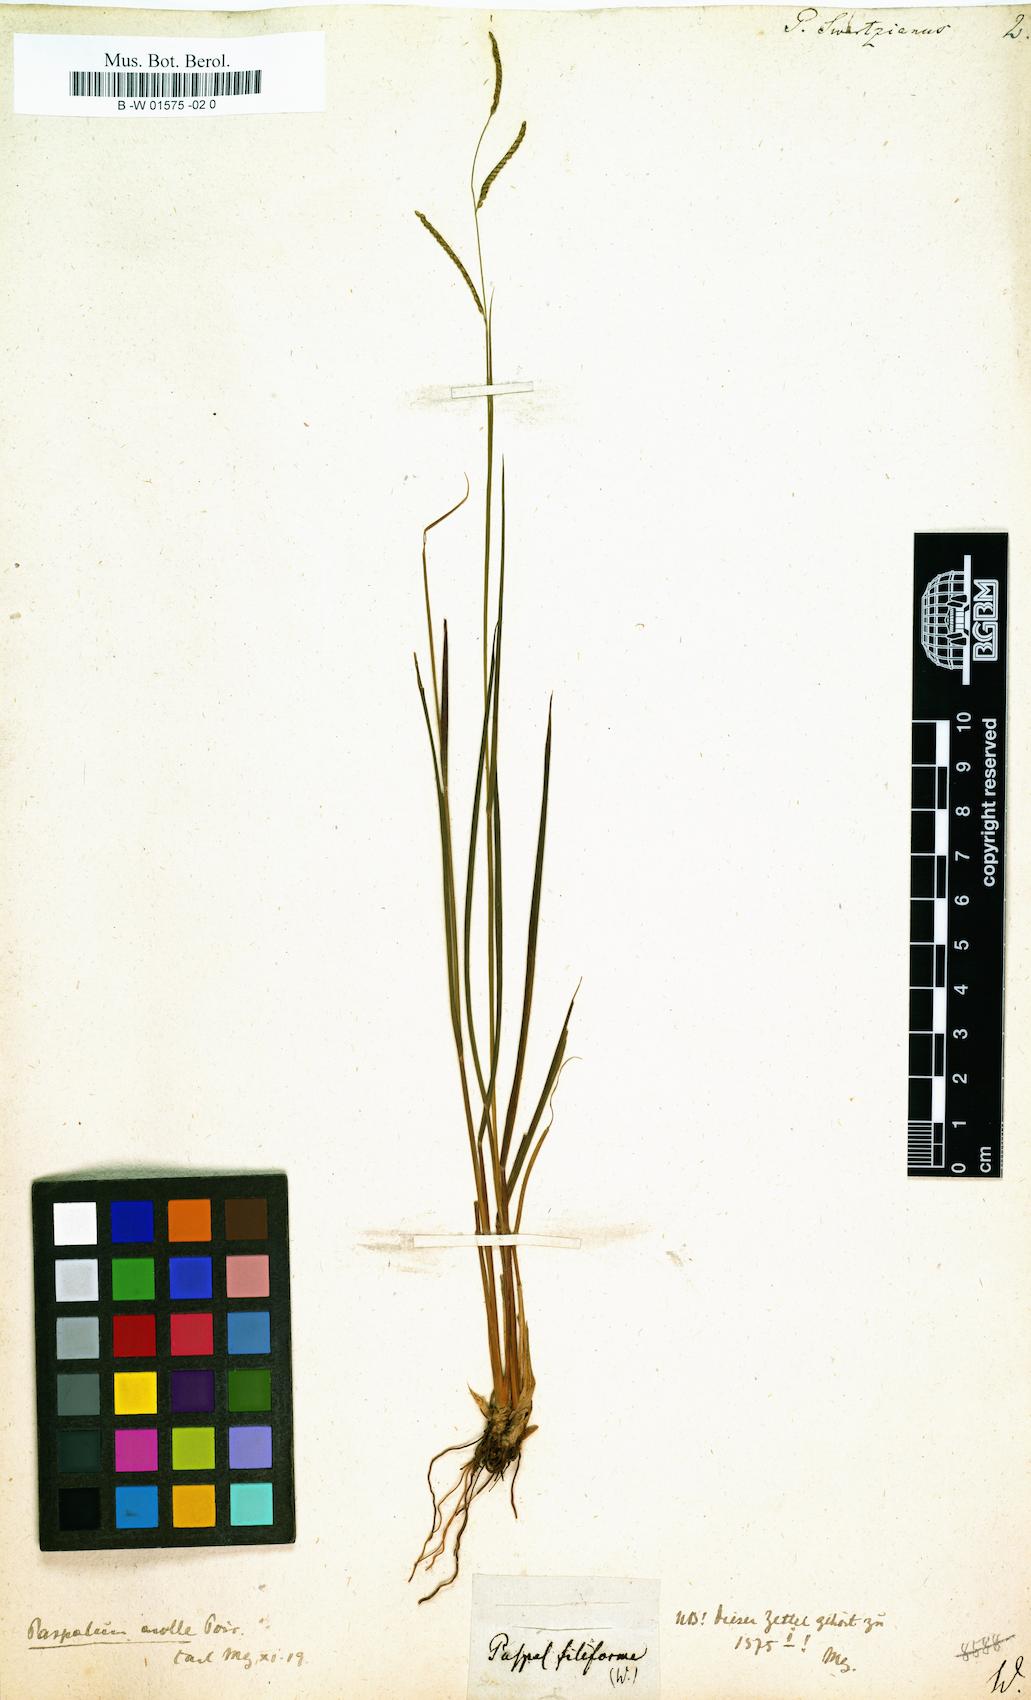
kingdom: Plantae
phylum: Tracheophyta
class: Liliopsida
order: Poales
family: Poaceae
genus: Paspalus
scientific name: Paspalus
